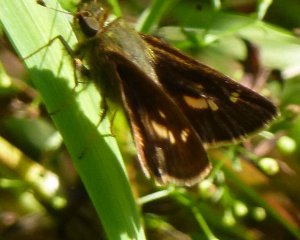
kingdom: Animalia
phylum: Arthropoda
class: Insecta
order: Lepidoptera
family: Hesperiidae
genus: Polites
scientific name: Polites egeremet
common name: Northern Broken-Dash
